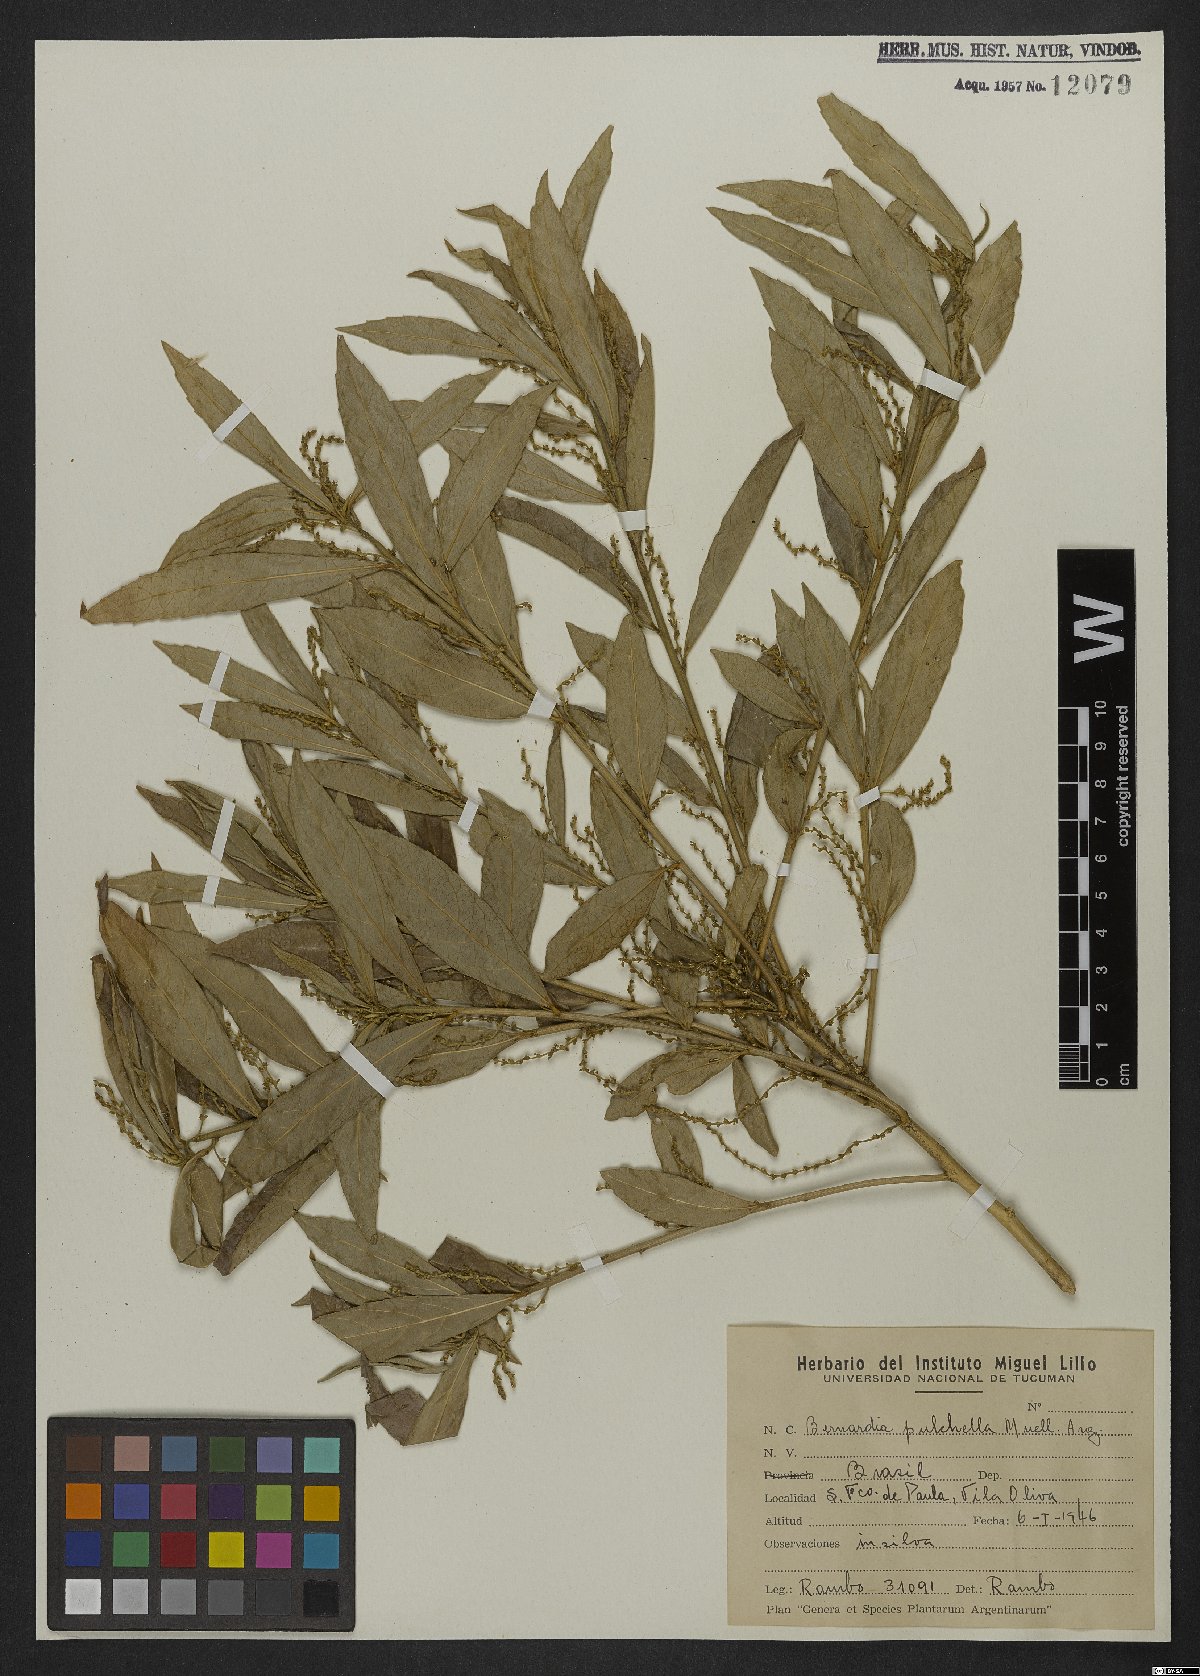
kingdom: Plantae
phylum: Tracheophyta
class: Magnoliopsida
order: Malpighiales
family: Euphorbiaceae
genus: Bernardia
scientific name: Bernardia pulchella
